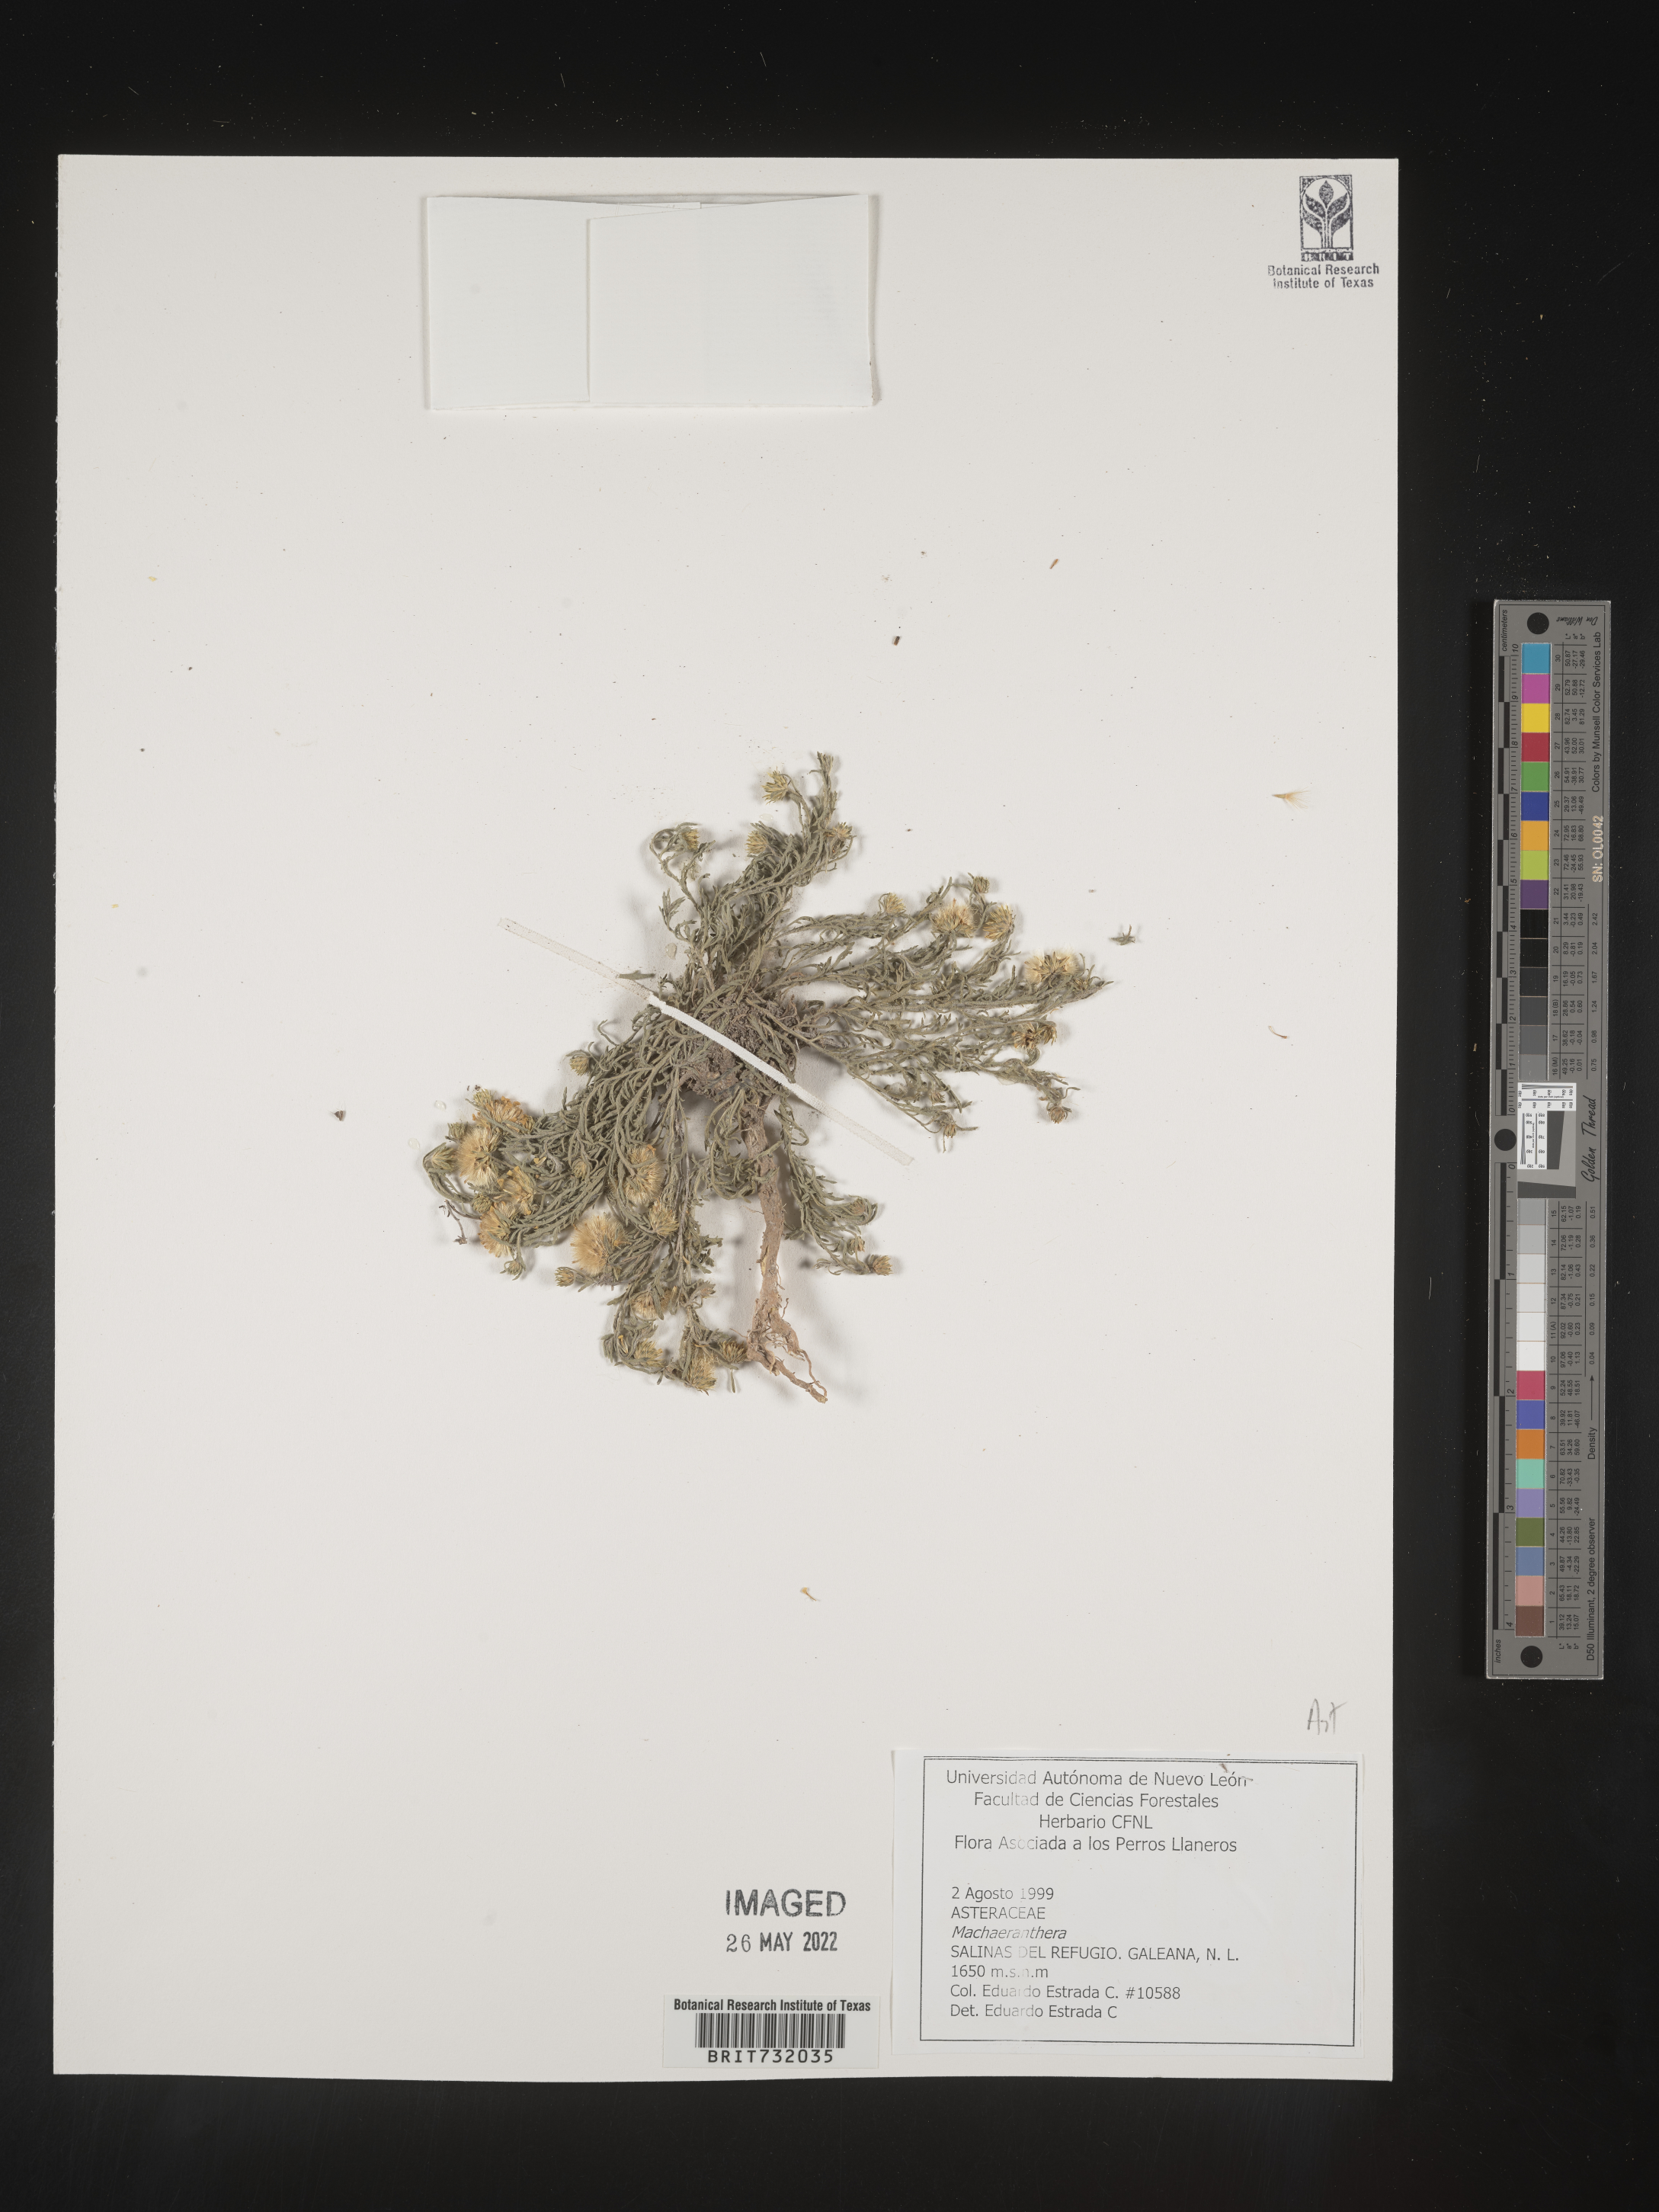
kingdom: Plantae
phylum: Tracheophyta
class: Magnoliopsida
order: Asterales
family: Asteraceae
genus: Machaeranthera
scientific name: Machaeranthera
